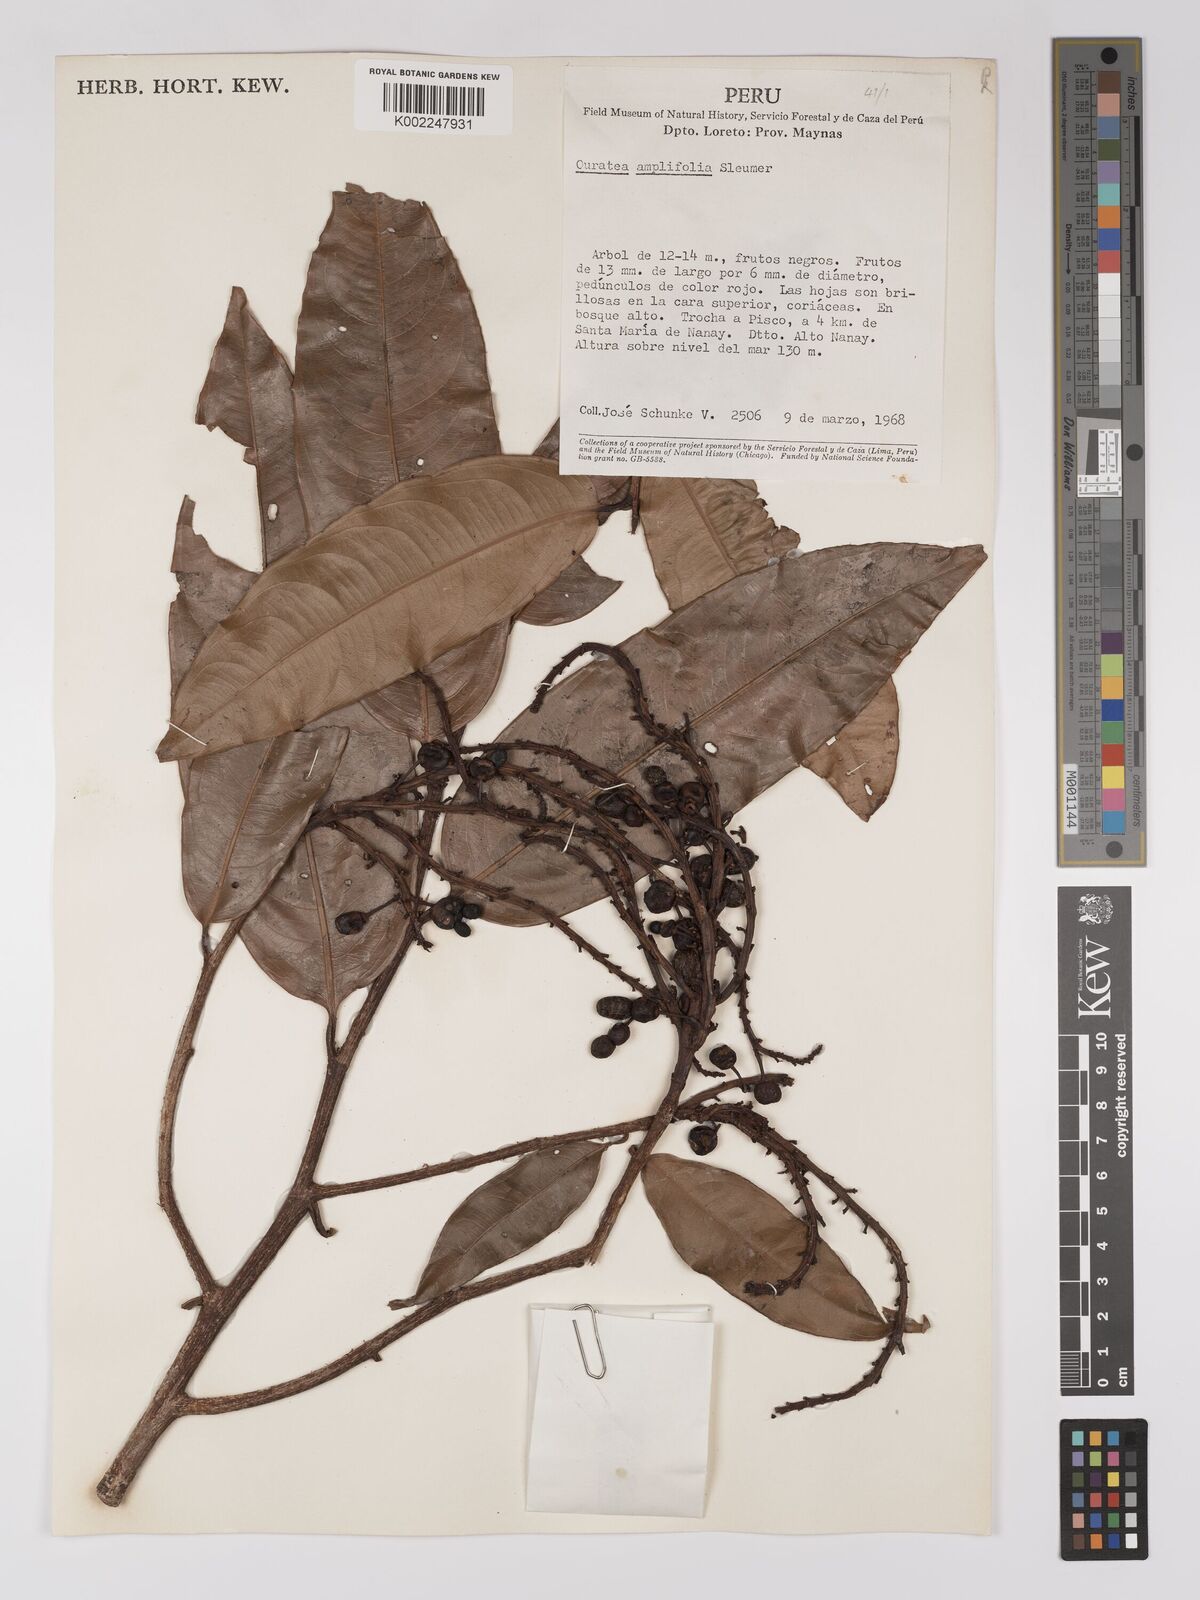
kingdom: Plantae
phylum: Tracheophyta
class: Magnoliopsida
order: Malpighiales
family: Ochnaceae
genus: Ouratea
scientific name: Ouratea amplifolia
